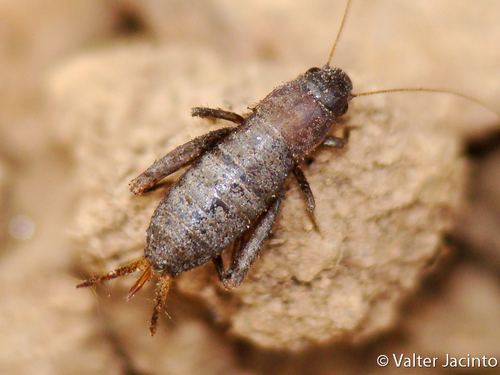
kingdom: Animalia
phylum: Arthropoda
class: Insecta
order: Orthoptera
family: Mogoplistidae
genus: Paramogoplistes
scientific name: Paramogoplistes dentatus del
